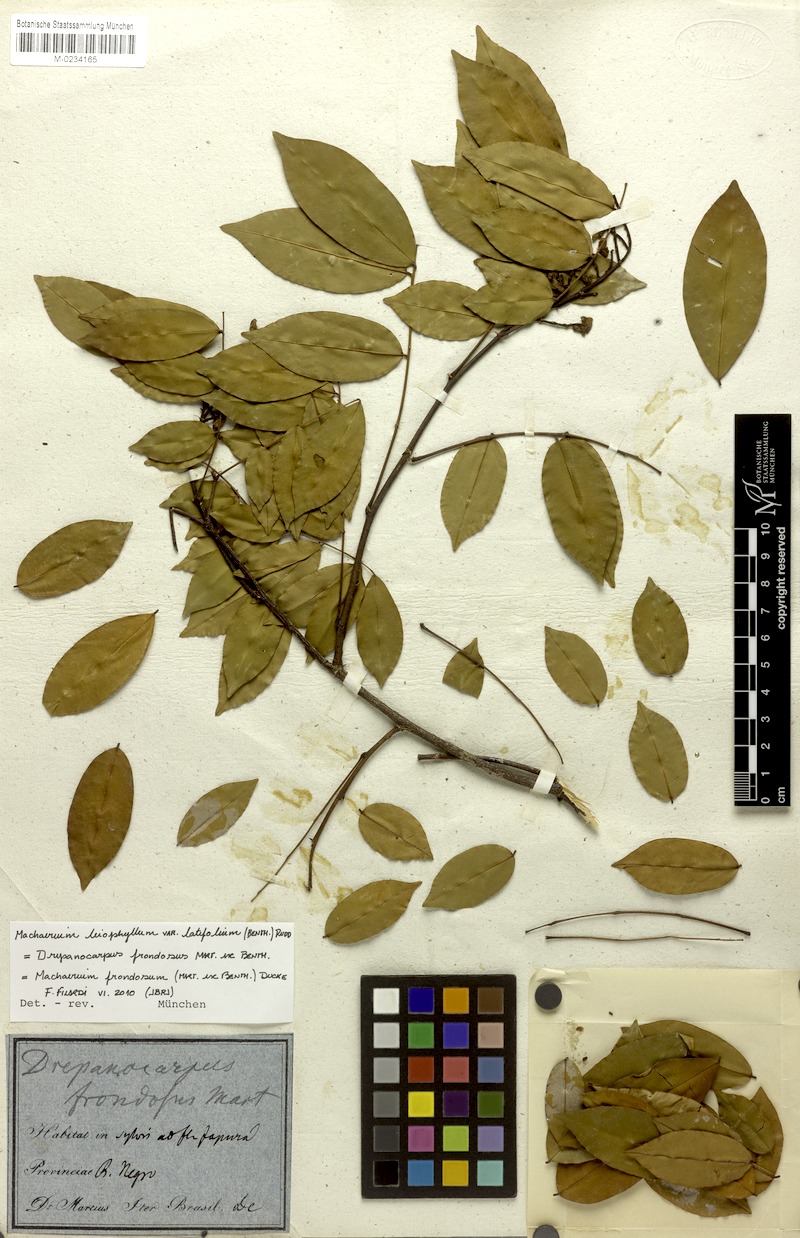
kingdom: Plantae
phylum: Tracheophyta
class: Magnoliopsida
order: Fabales
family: Fabaceae
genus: Machaerium
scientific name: Machaerium leiophyllum
